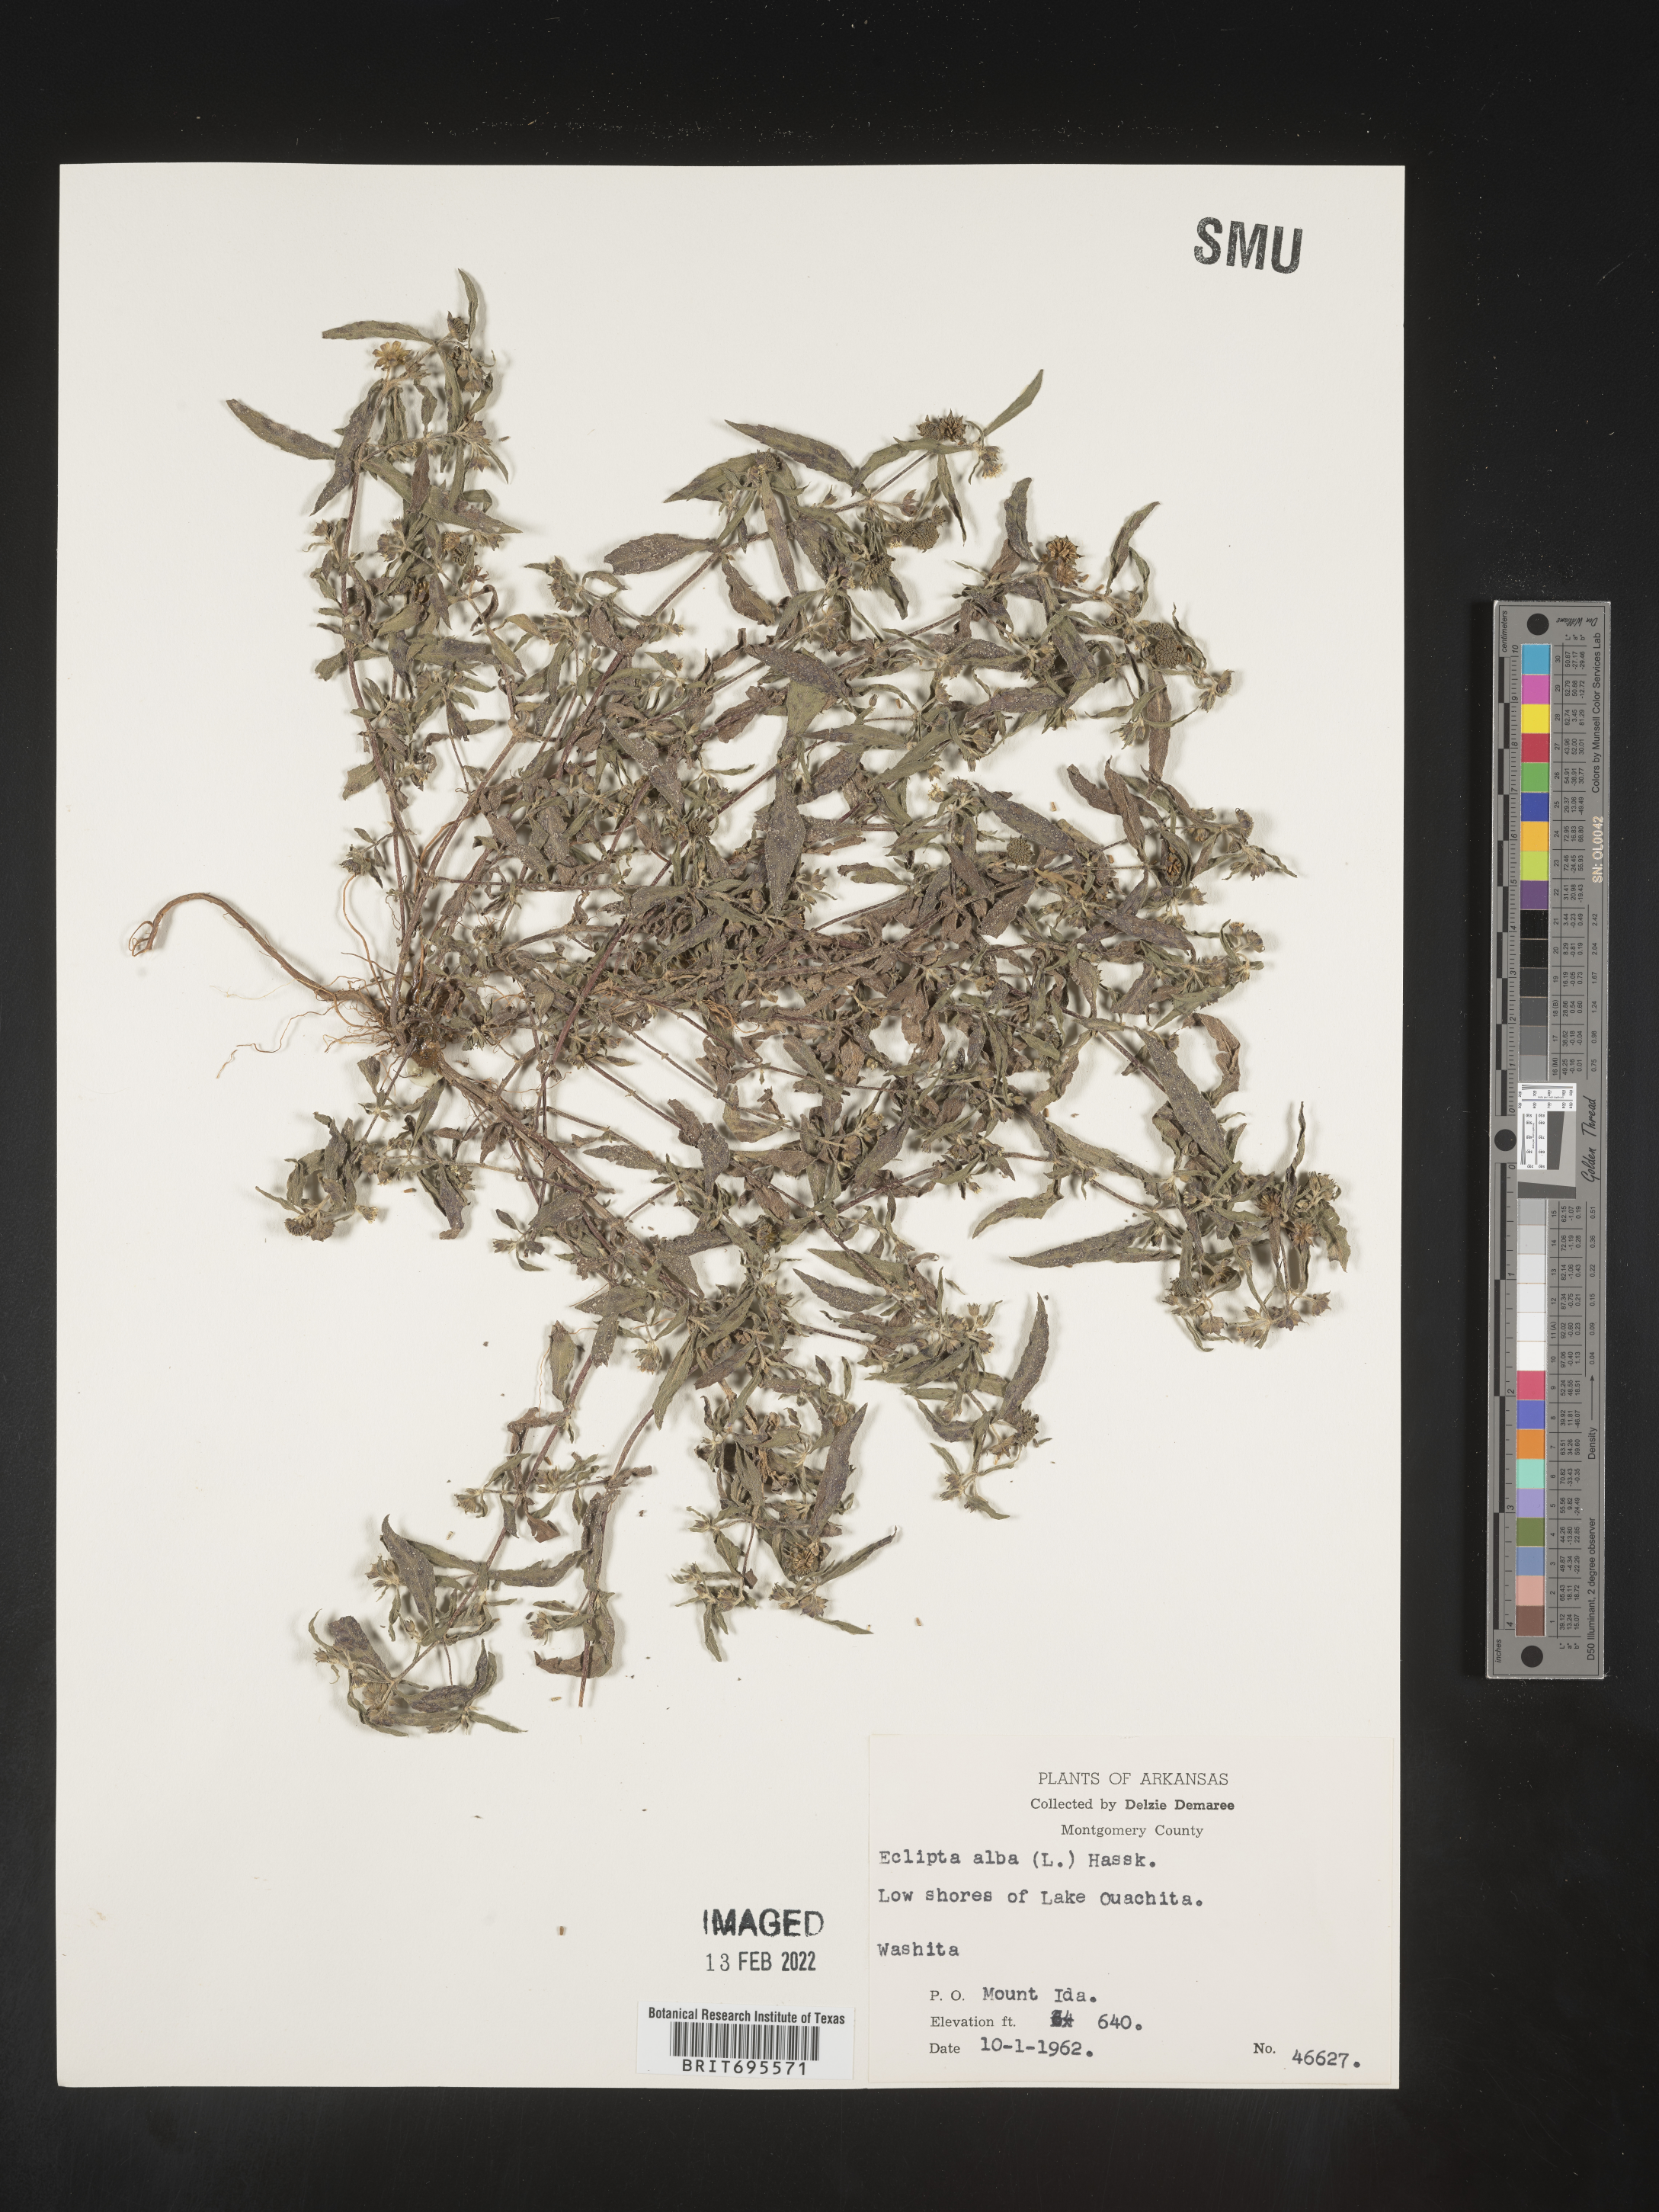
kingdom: Plantae
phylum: Tracheophyta
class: Magnoliopsida
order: Asterales
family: Asteraceae
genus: Eclipta
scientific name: Eclipta alba
